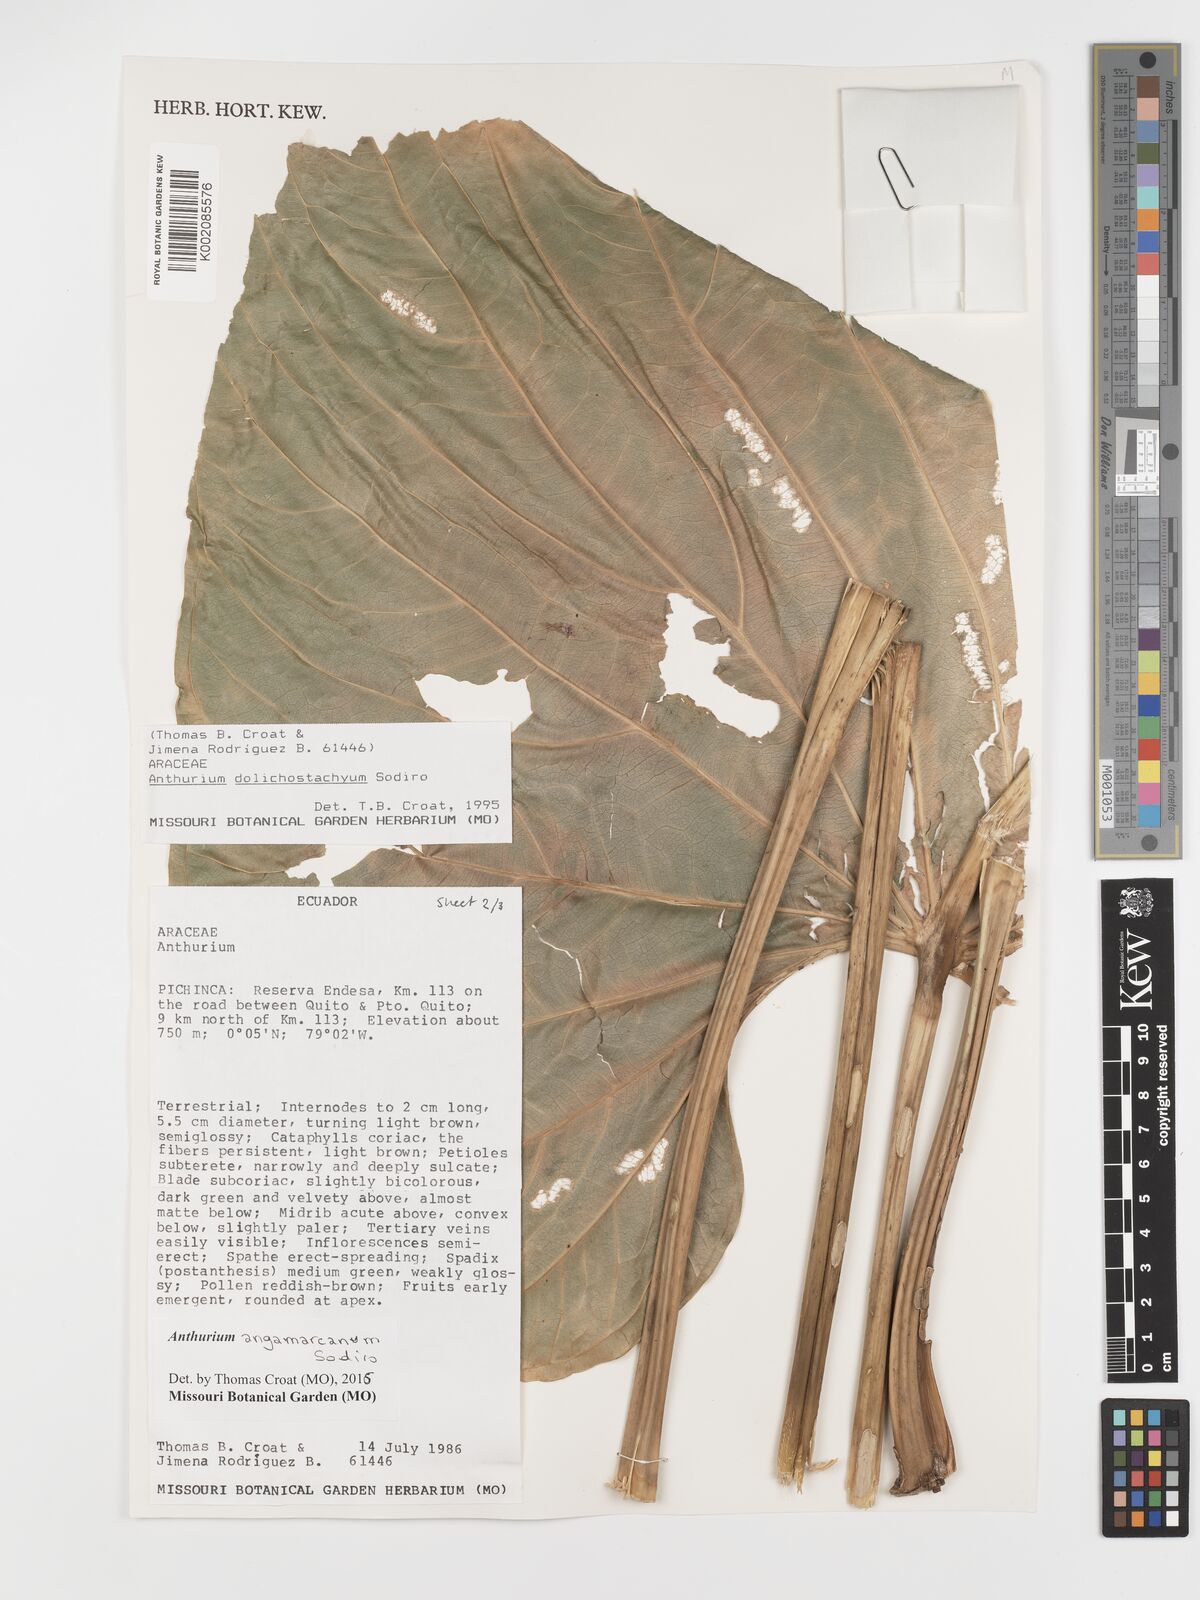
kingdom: Plantae
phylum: Tracheophyta
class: Liliopsida
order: Alismatales
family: Araceae
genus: Anthurium
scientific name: Anthurium dolichostachyum
